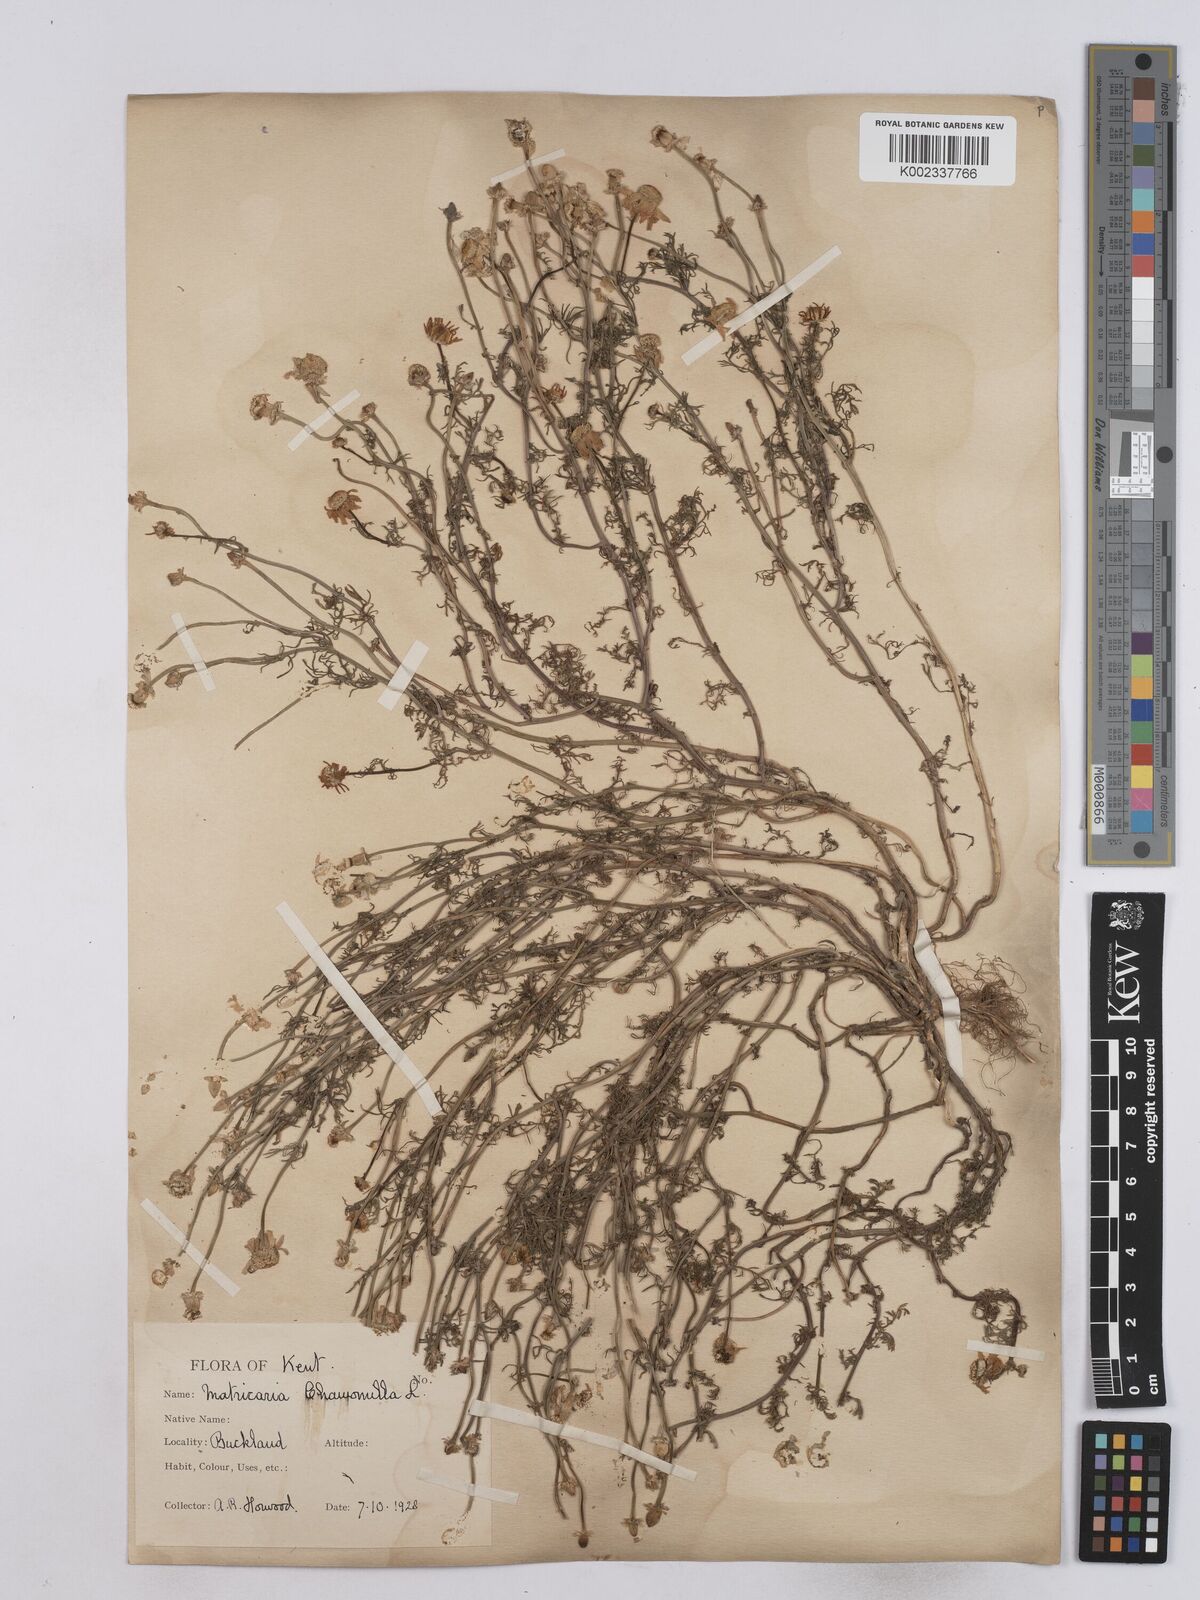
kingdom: Plantae
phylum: Tracheophyta
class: Magnoliopsida
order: Asterales
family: Asteraceae
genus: Matricaria
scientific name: Matricaria chamomilla
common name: Scented mayweed
